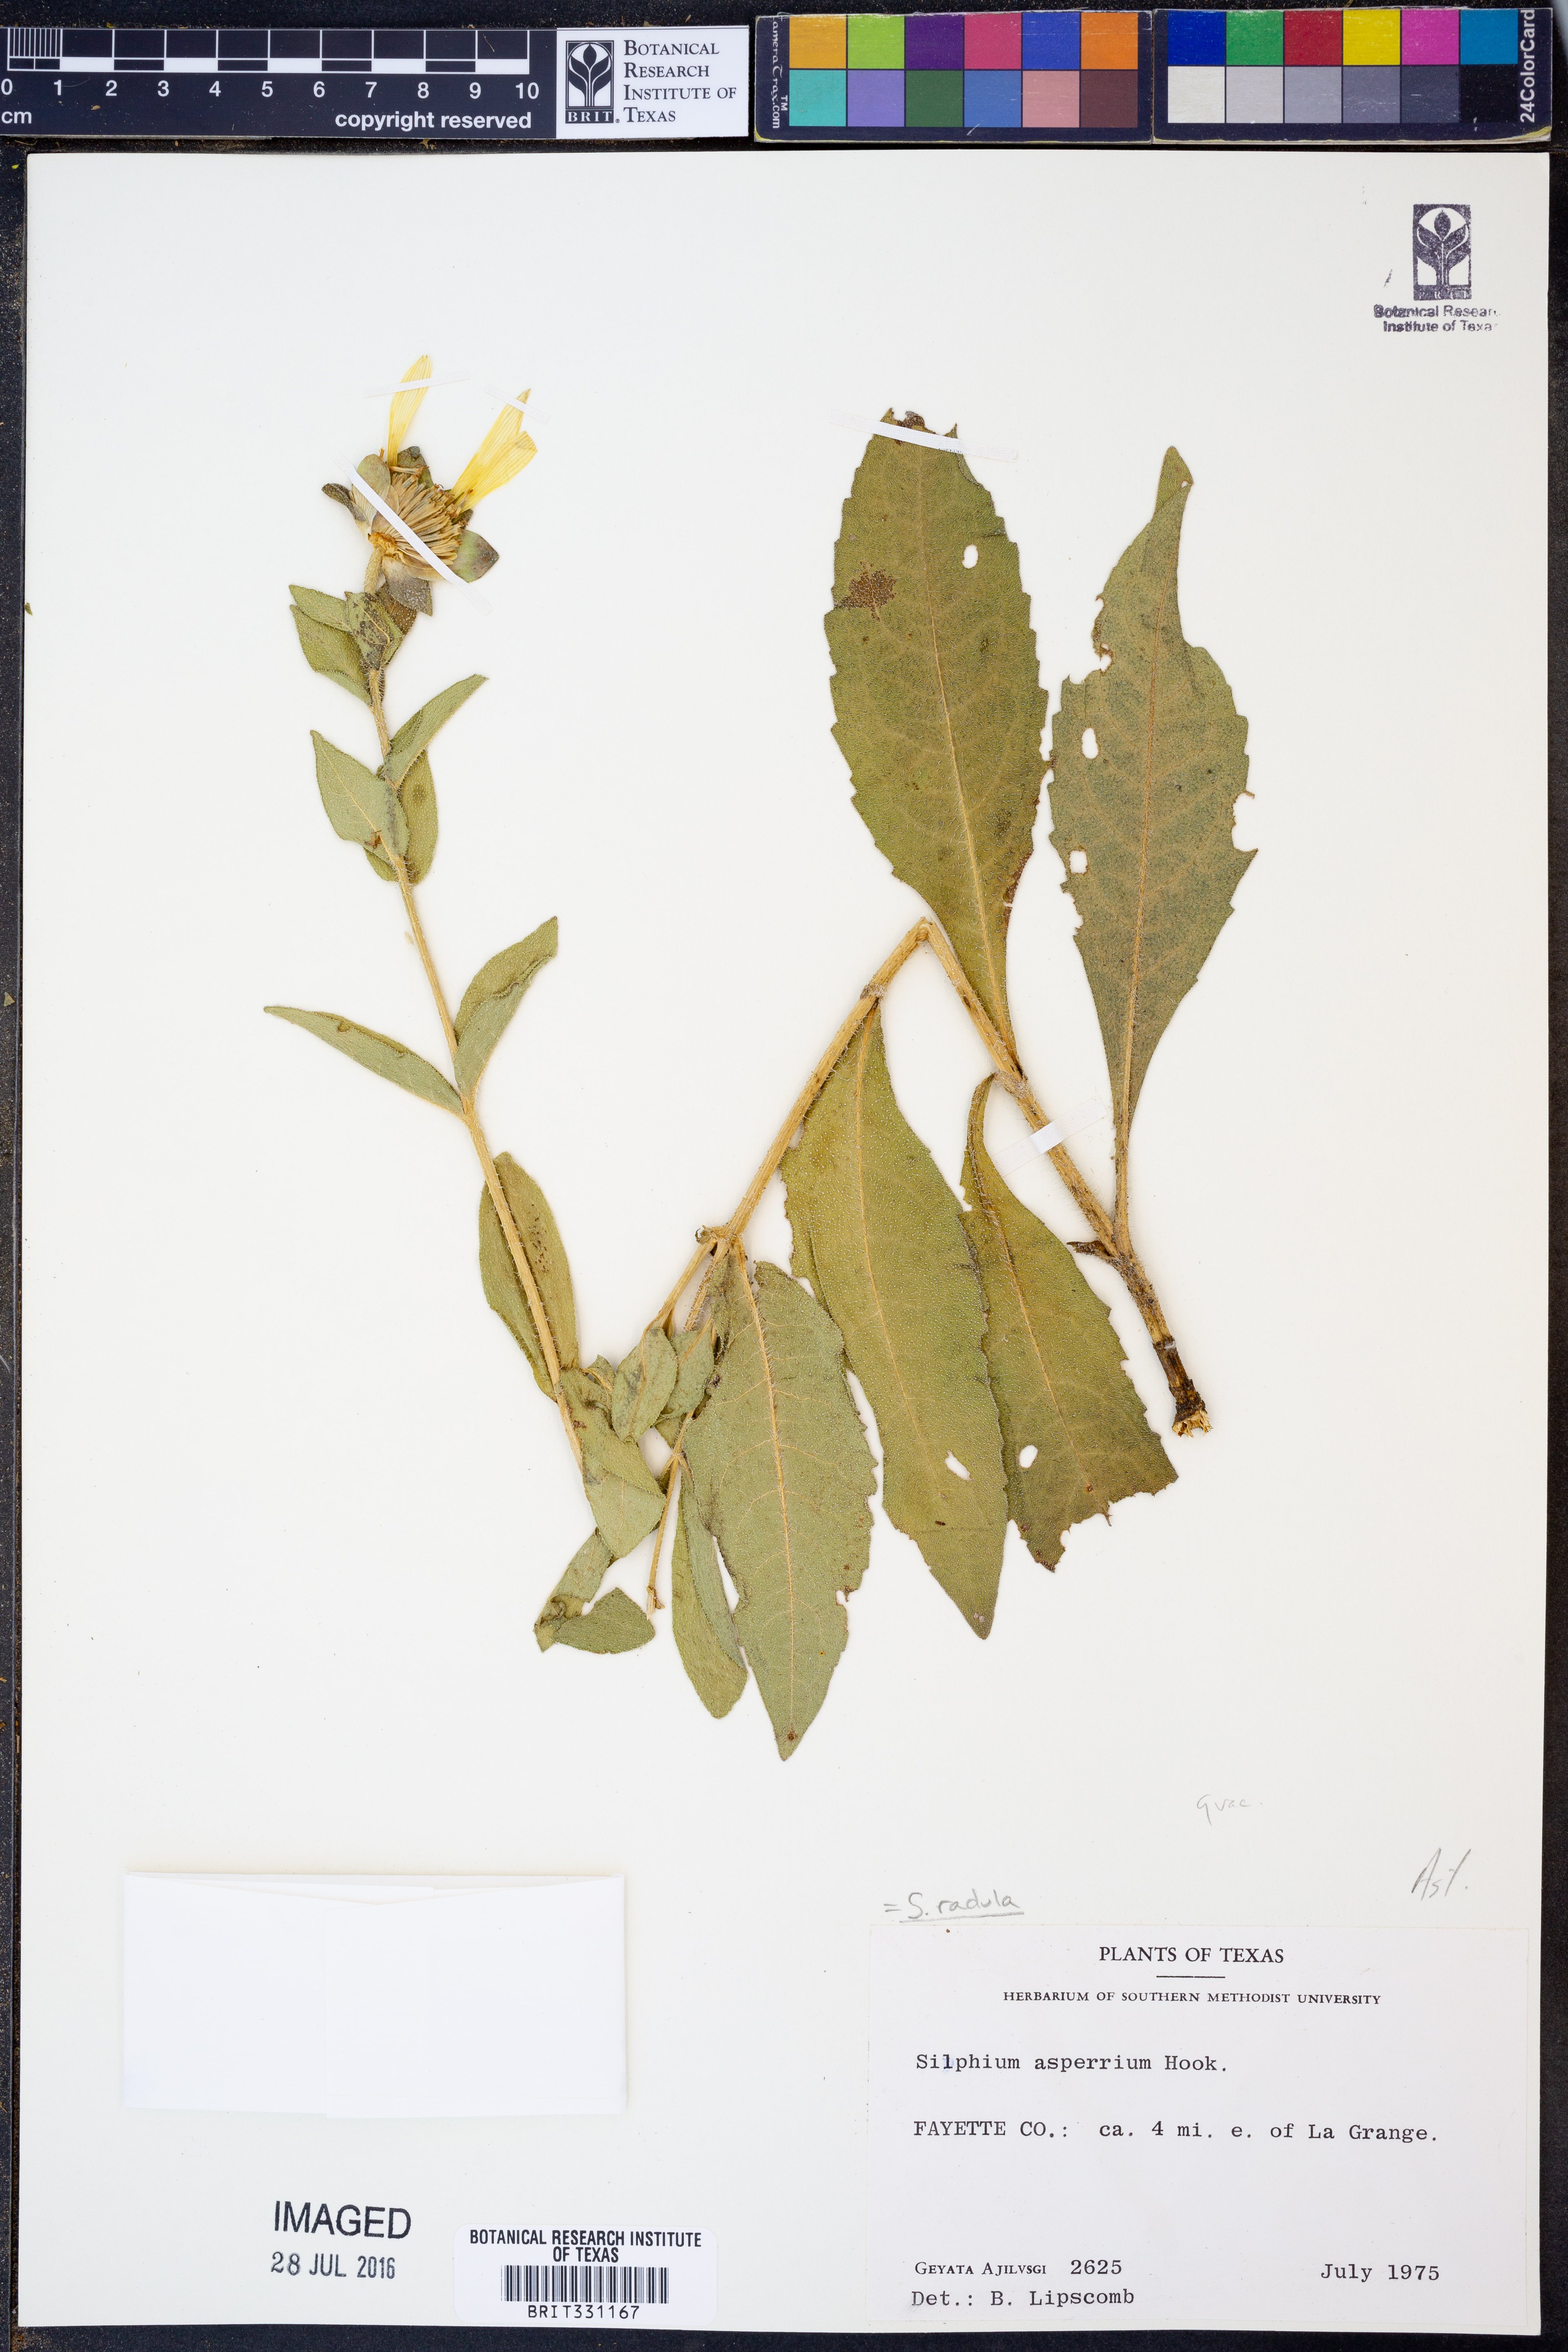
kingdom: Plantae
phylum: Tracheophyta
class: Magnoliopsida
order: Asterales
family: Asteraceae
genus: Silphium
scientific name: Silphium radula
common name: Roughleaf rosinweed
